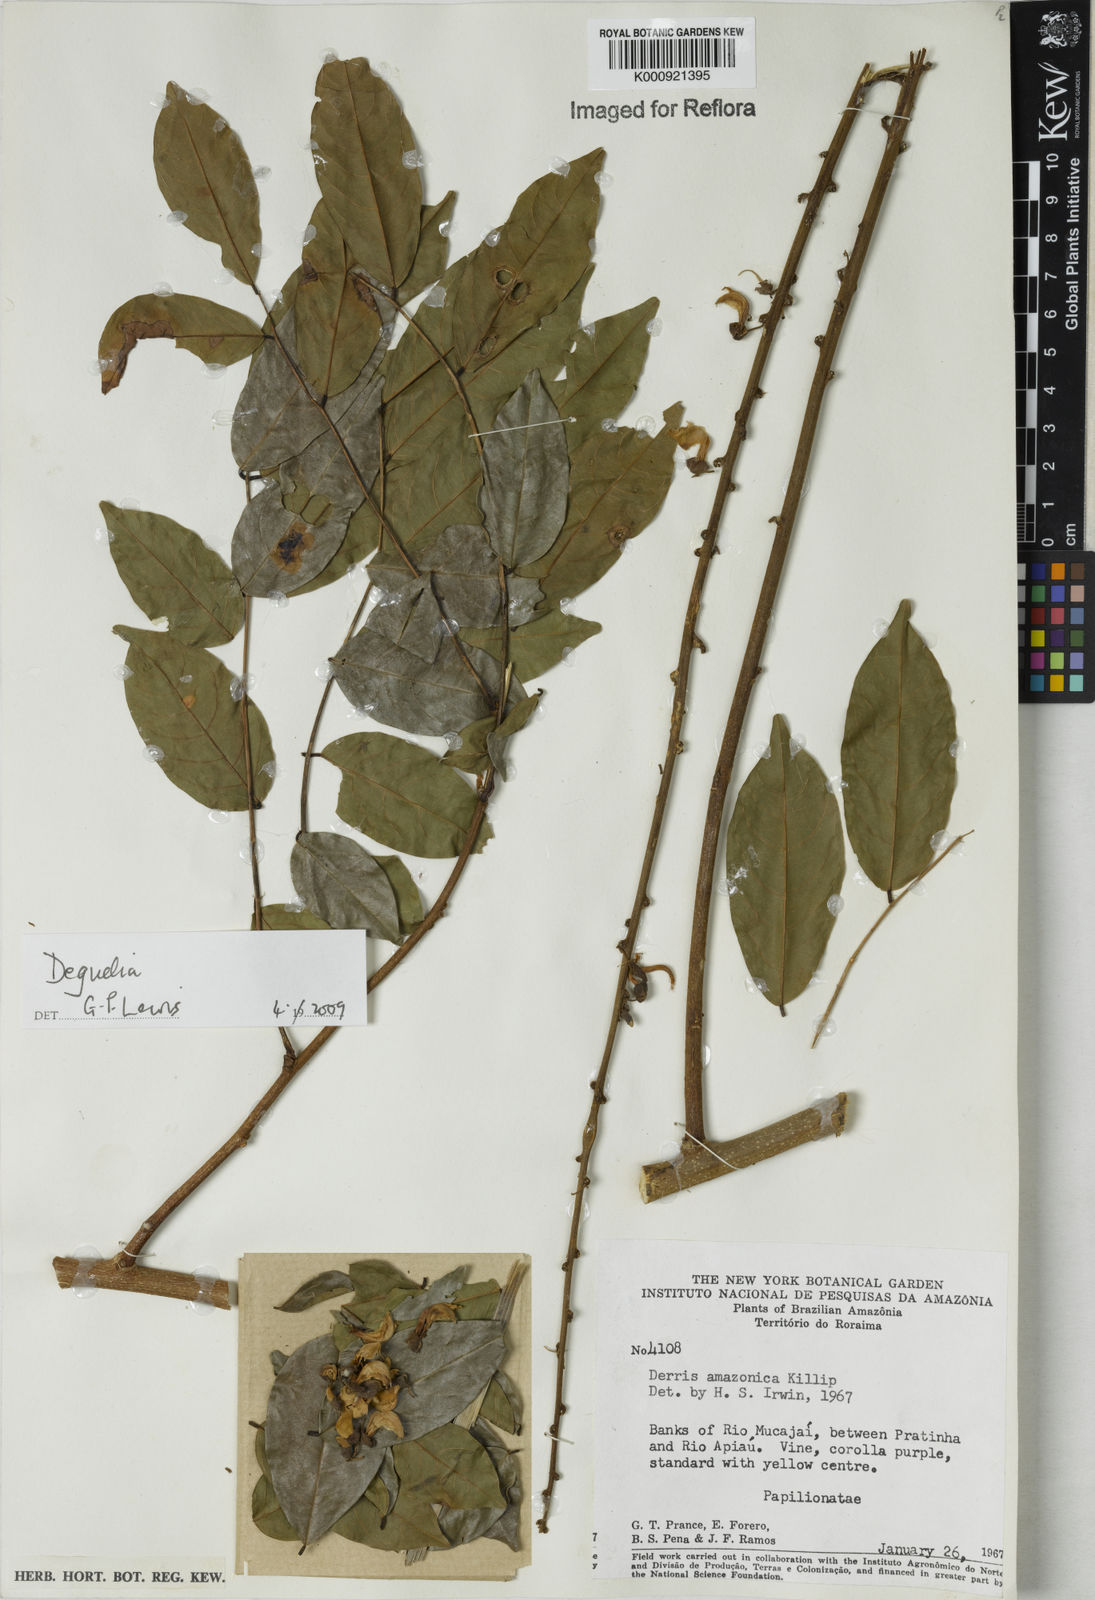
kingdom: Plantae
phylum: Tracheophyta
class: Magnoliopsida
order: Fabales
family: Fabaceae
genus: Deguelia
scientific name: Deguelia
